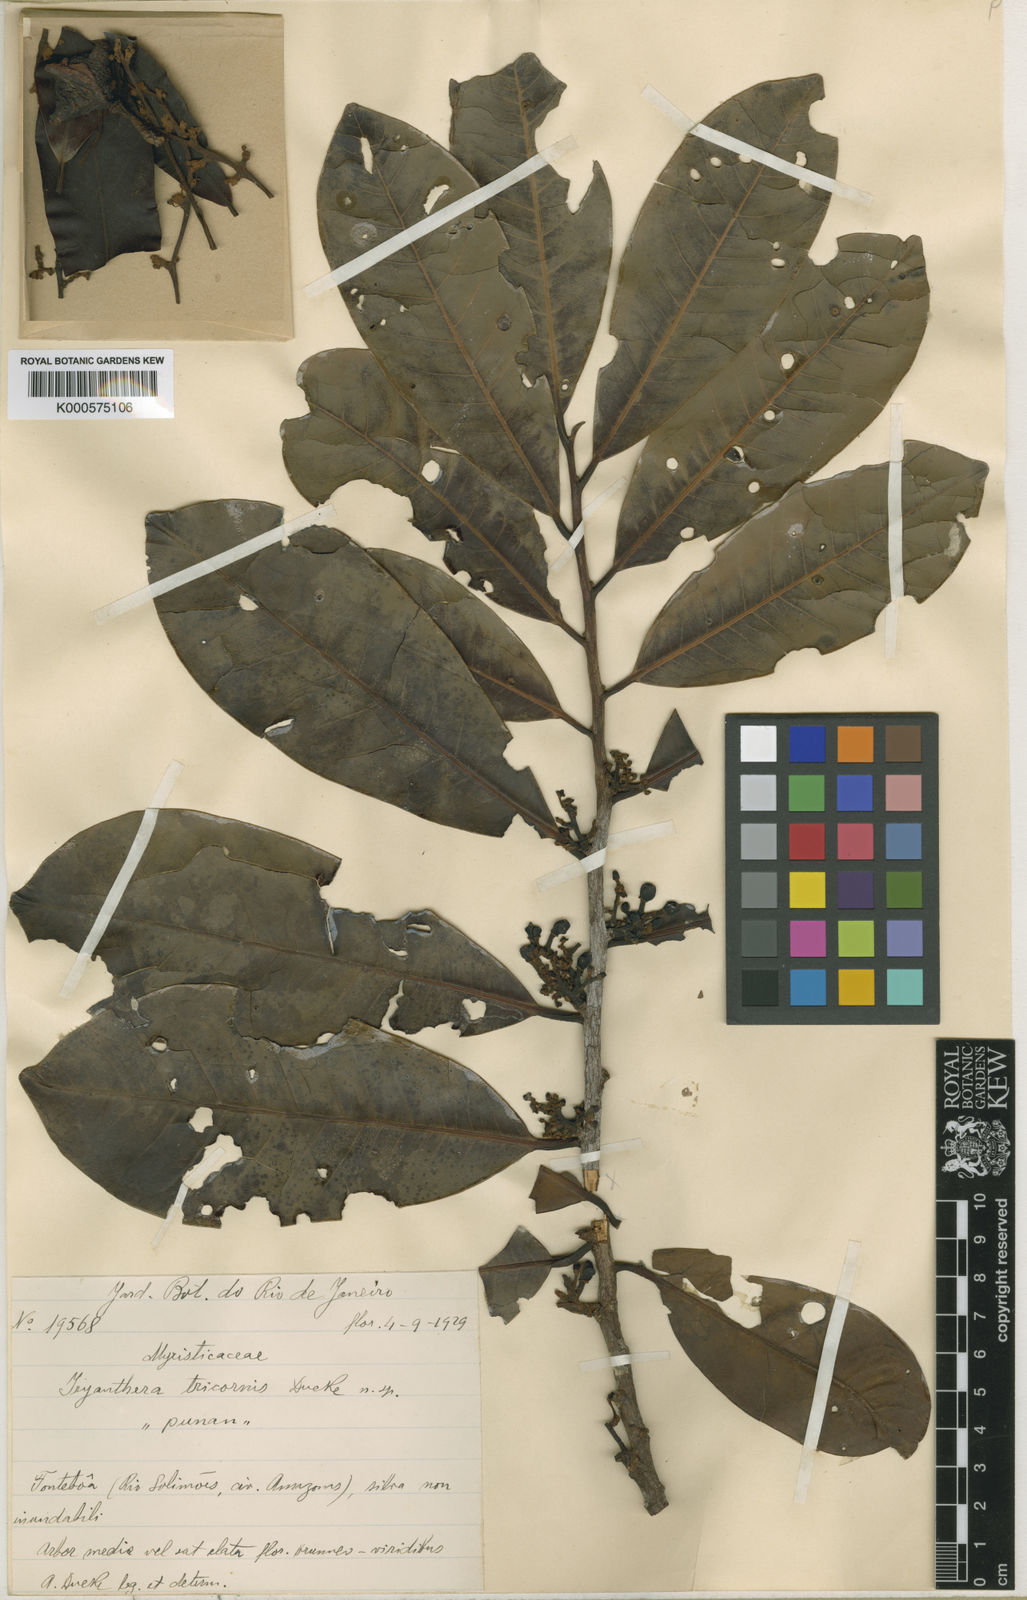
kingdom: Plantae
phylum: Tracheophyta
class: Magnoliopsida
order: Magnoliales
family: Myristicaceae
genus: Iryanthera
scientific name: Iryanthera tricornis
